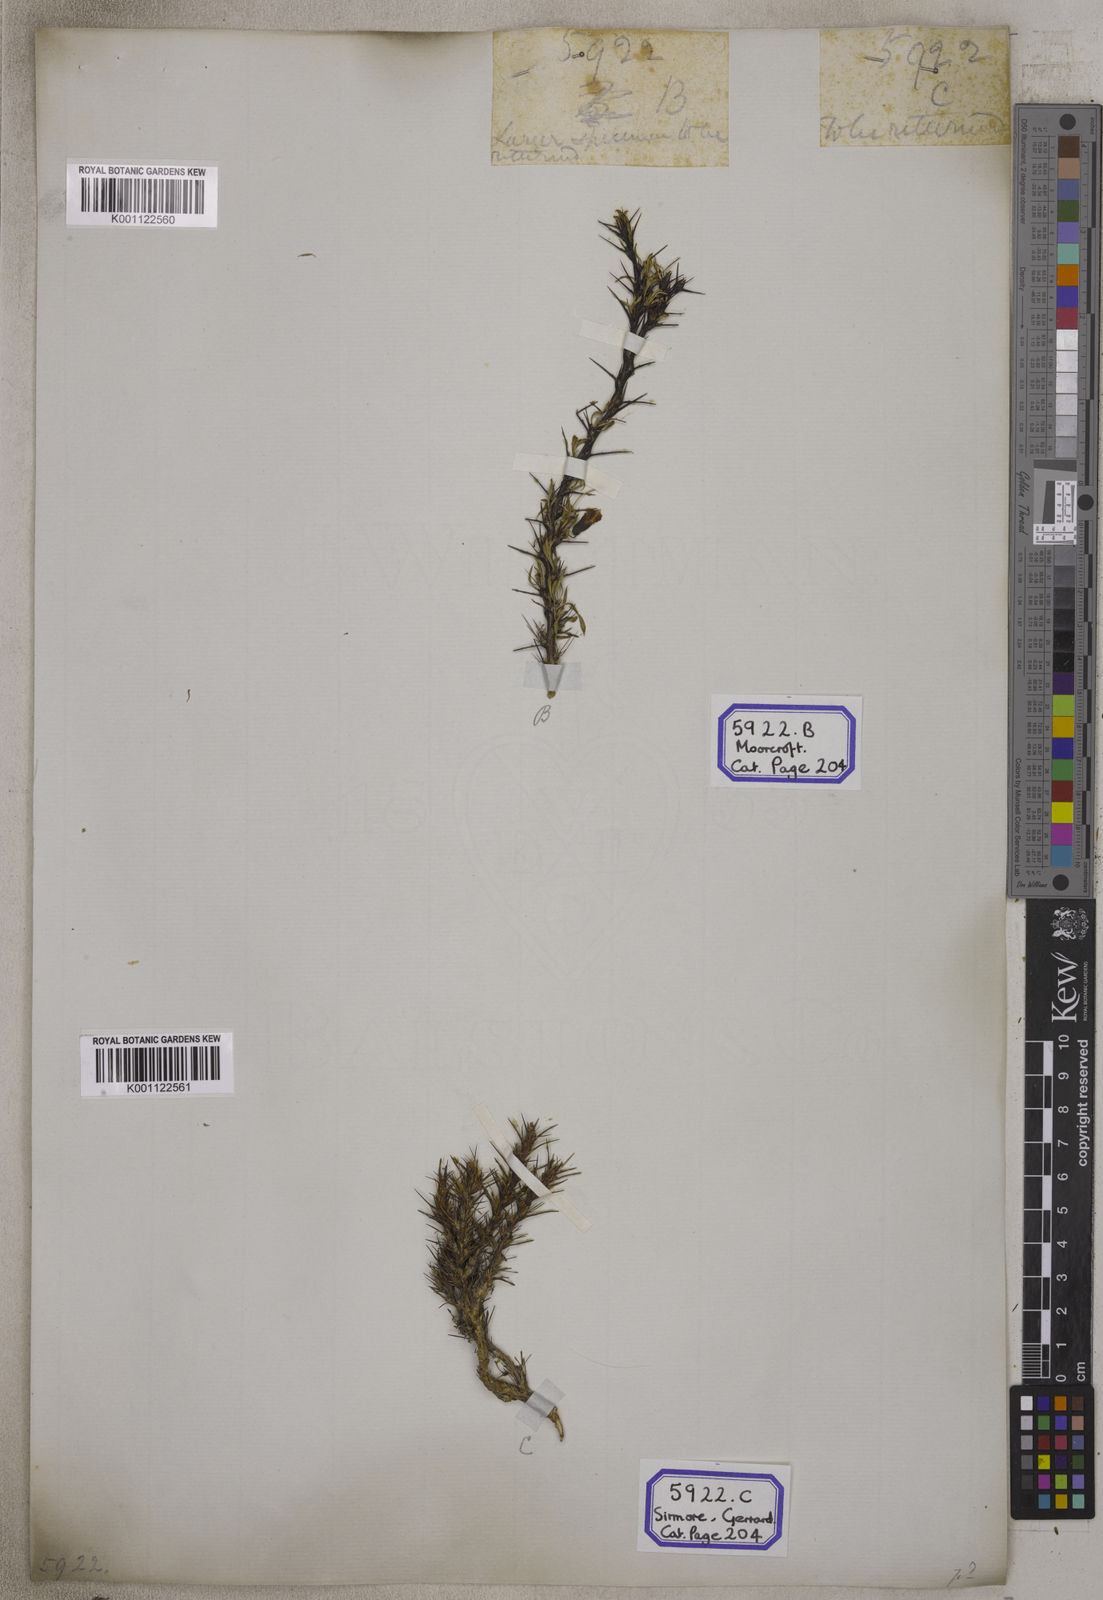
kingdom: Plantae
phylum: Tracheophyta
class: Magnoliopsida
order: Fabales
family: Fabaceae
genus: Genista
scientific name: Genista
